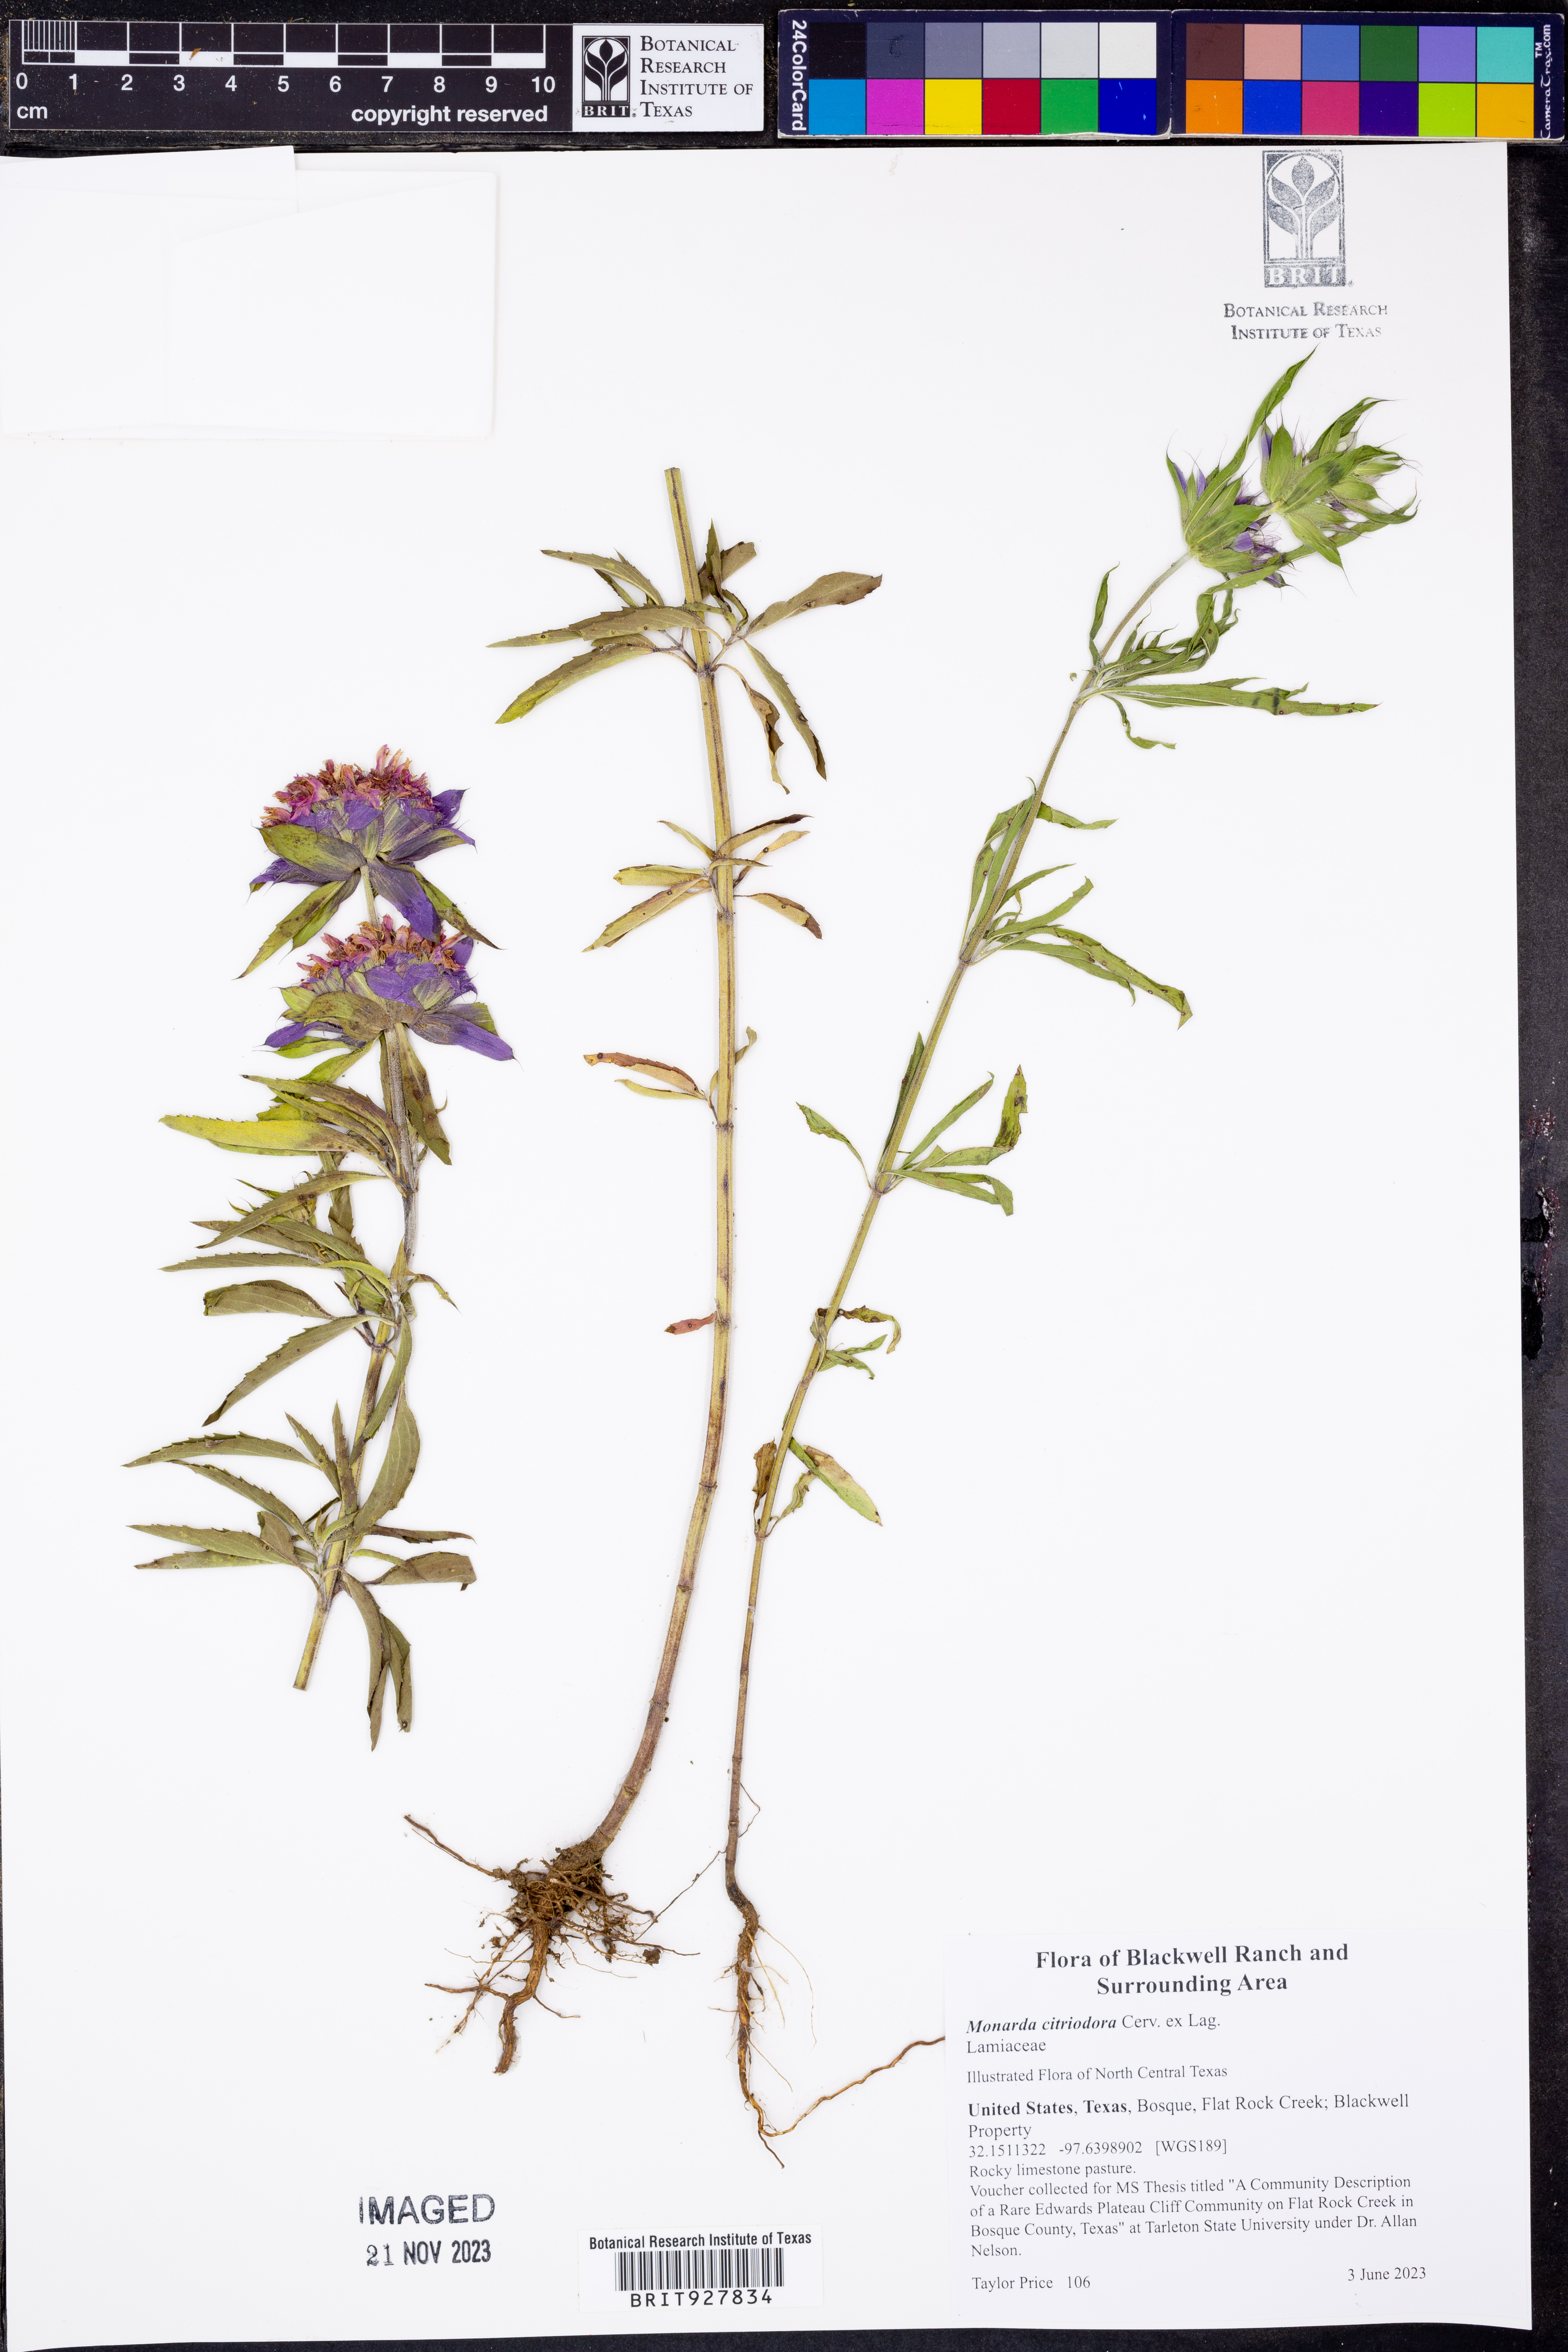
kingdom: Plantae
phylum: Tracheophyta
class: Magnoliopsida
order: Lamiales
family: Lamiaceae
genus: Monarda
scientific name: Monarda citriodora
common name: Lemon beebalm
